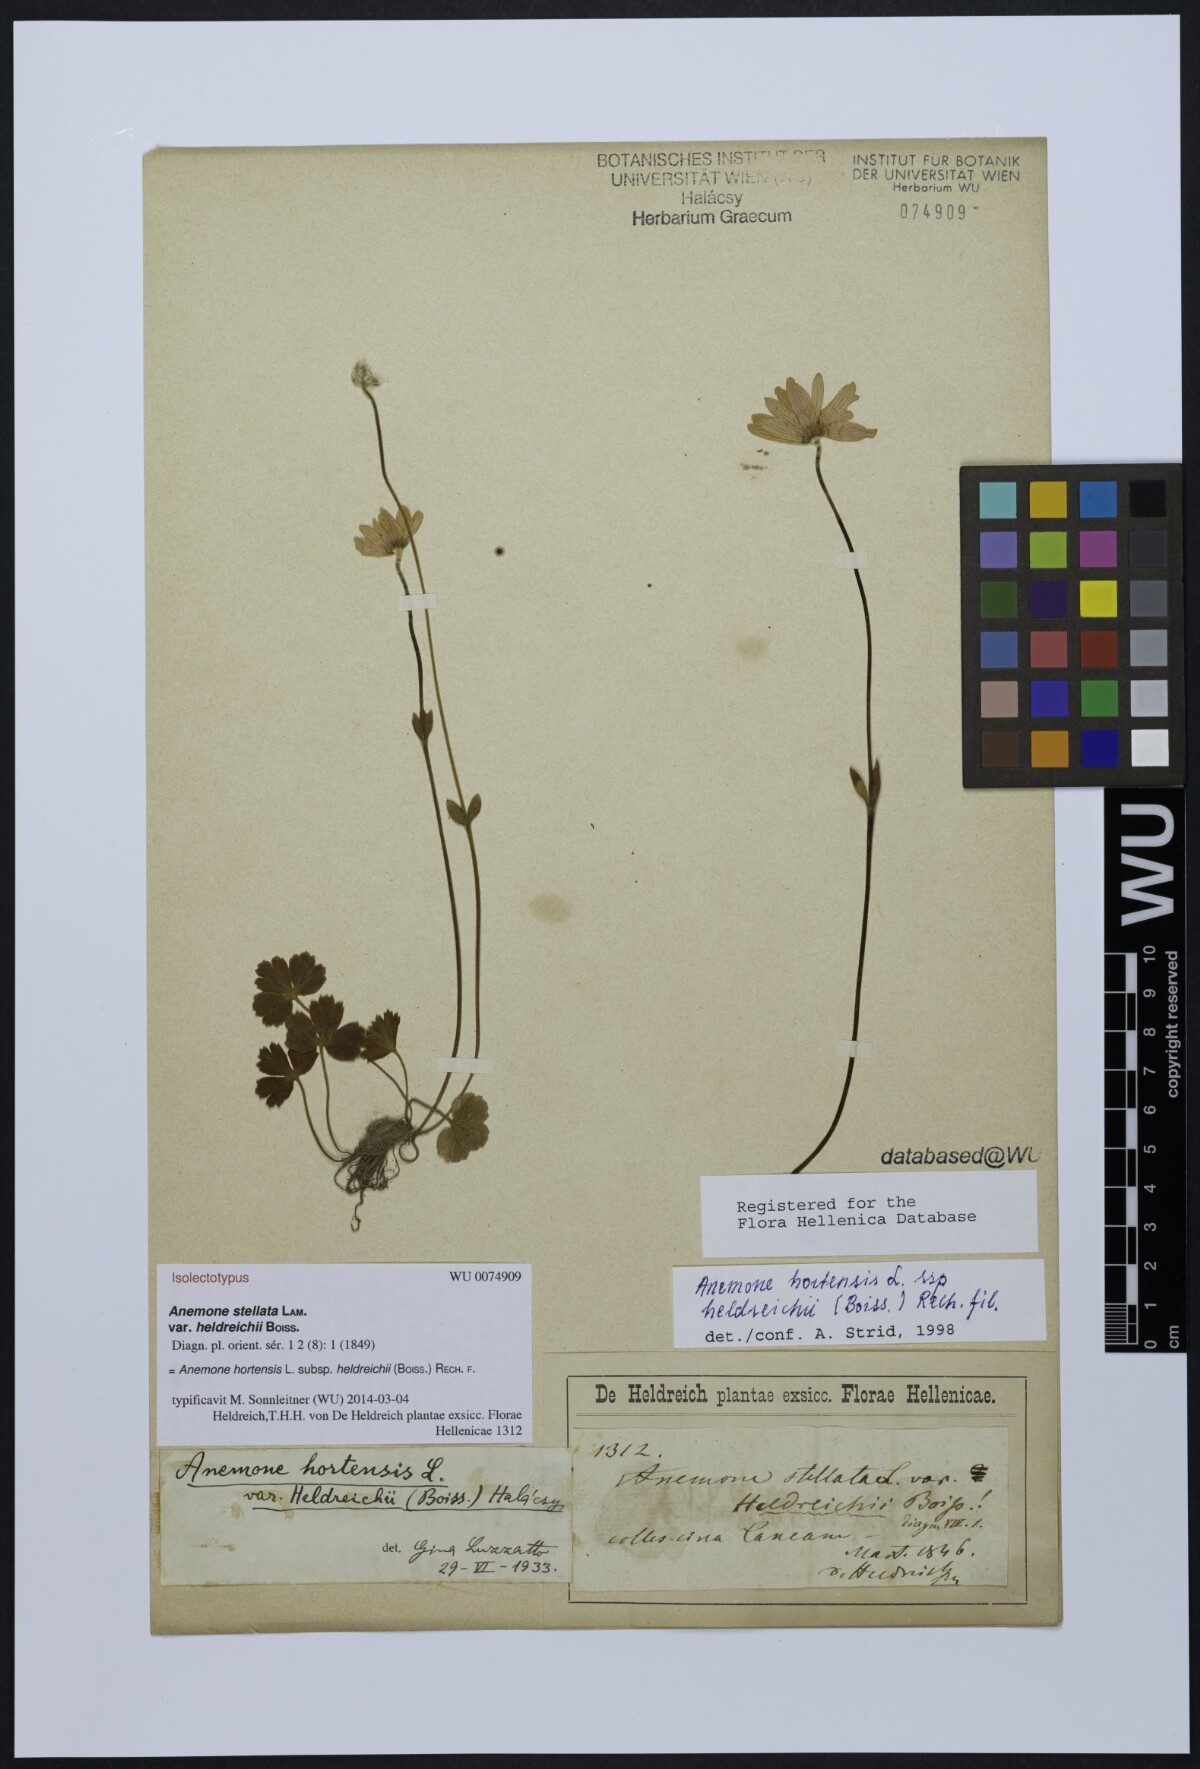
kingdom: Plantae
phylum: Tracheophyta
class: Magnoliopsida
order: Ranunculales
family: Ranunculaceae
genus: Anemone
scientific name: Anemone hortensis
